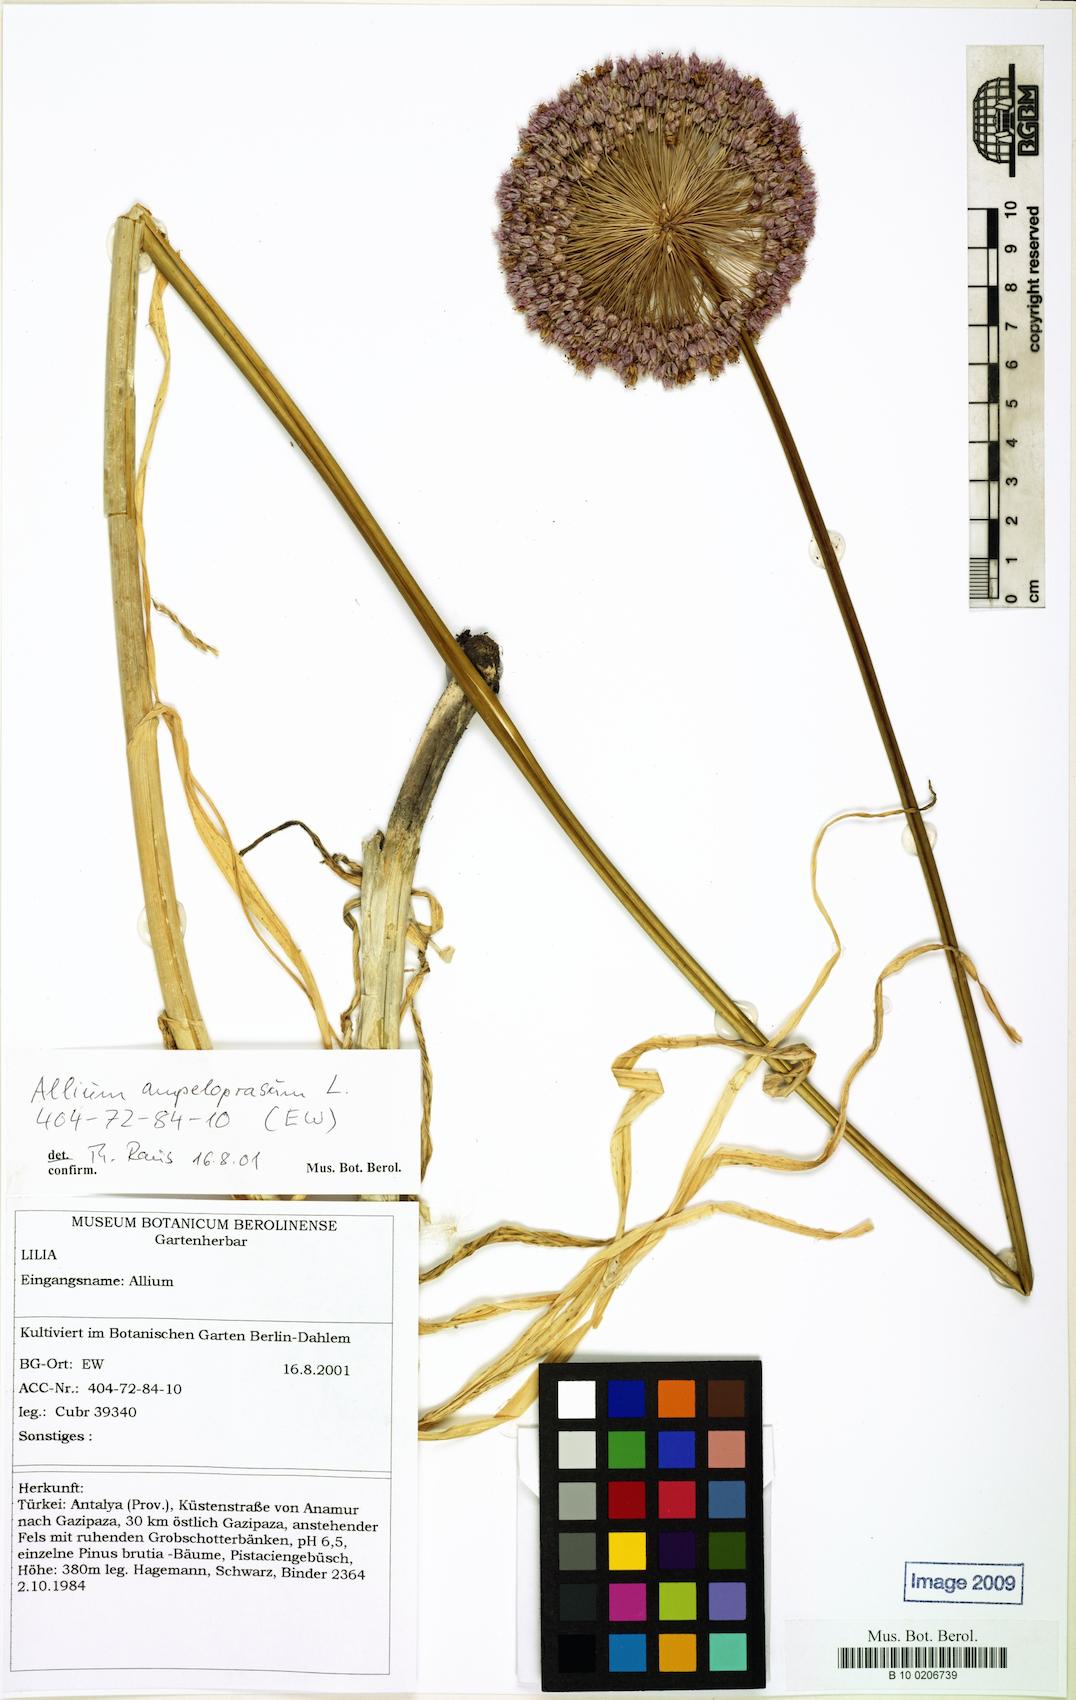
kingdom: Plantae
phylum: Tracheophyta
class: Liliopsida
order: Asparagales
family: Amaryllidaceae
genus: Allium
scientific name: Allium ampeloprasum
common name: Wild leek
